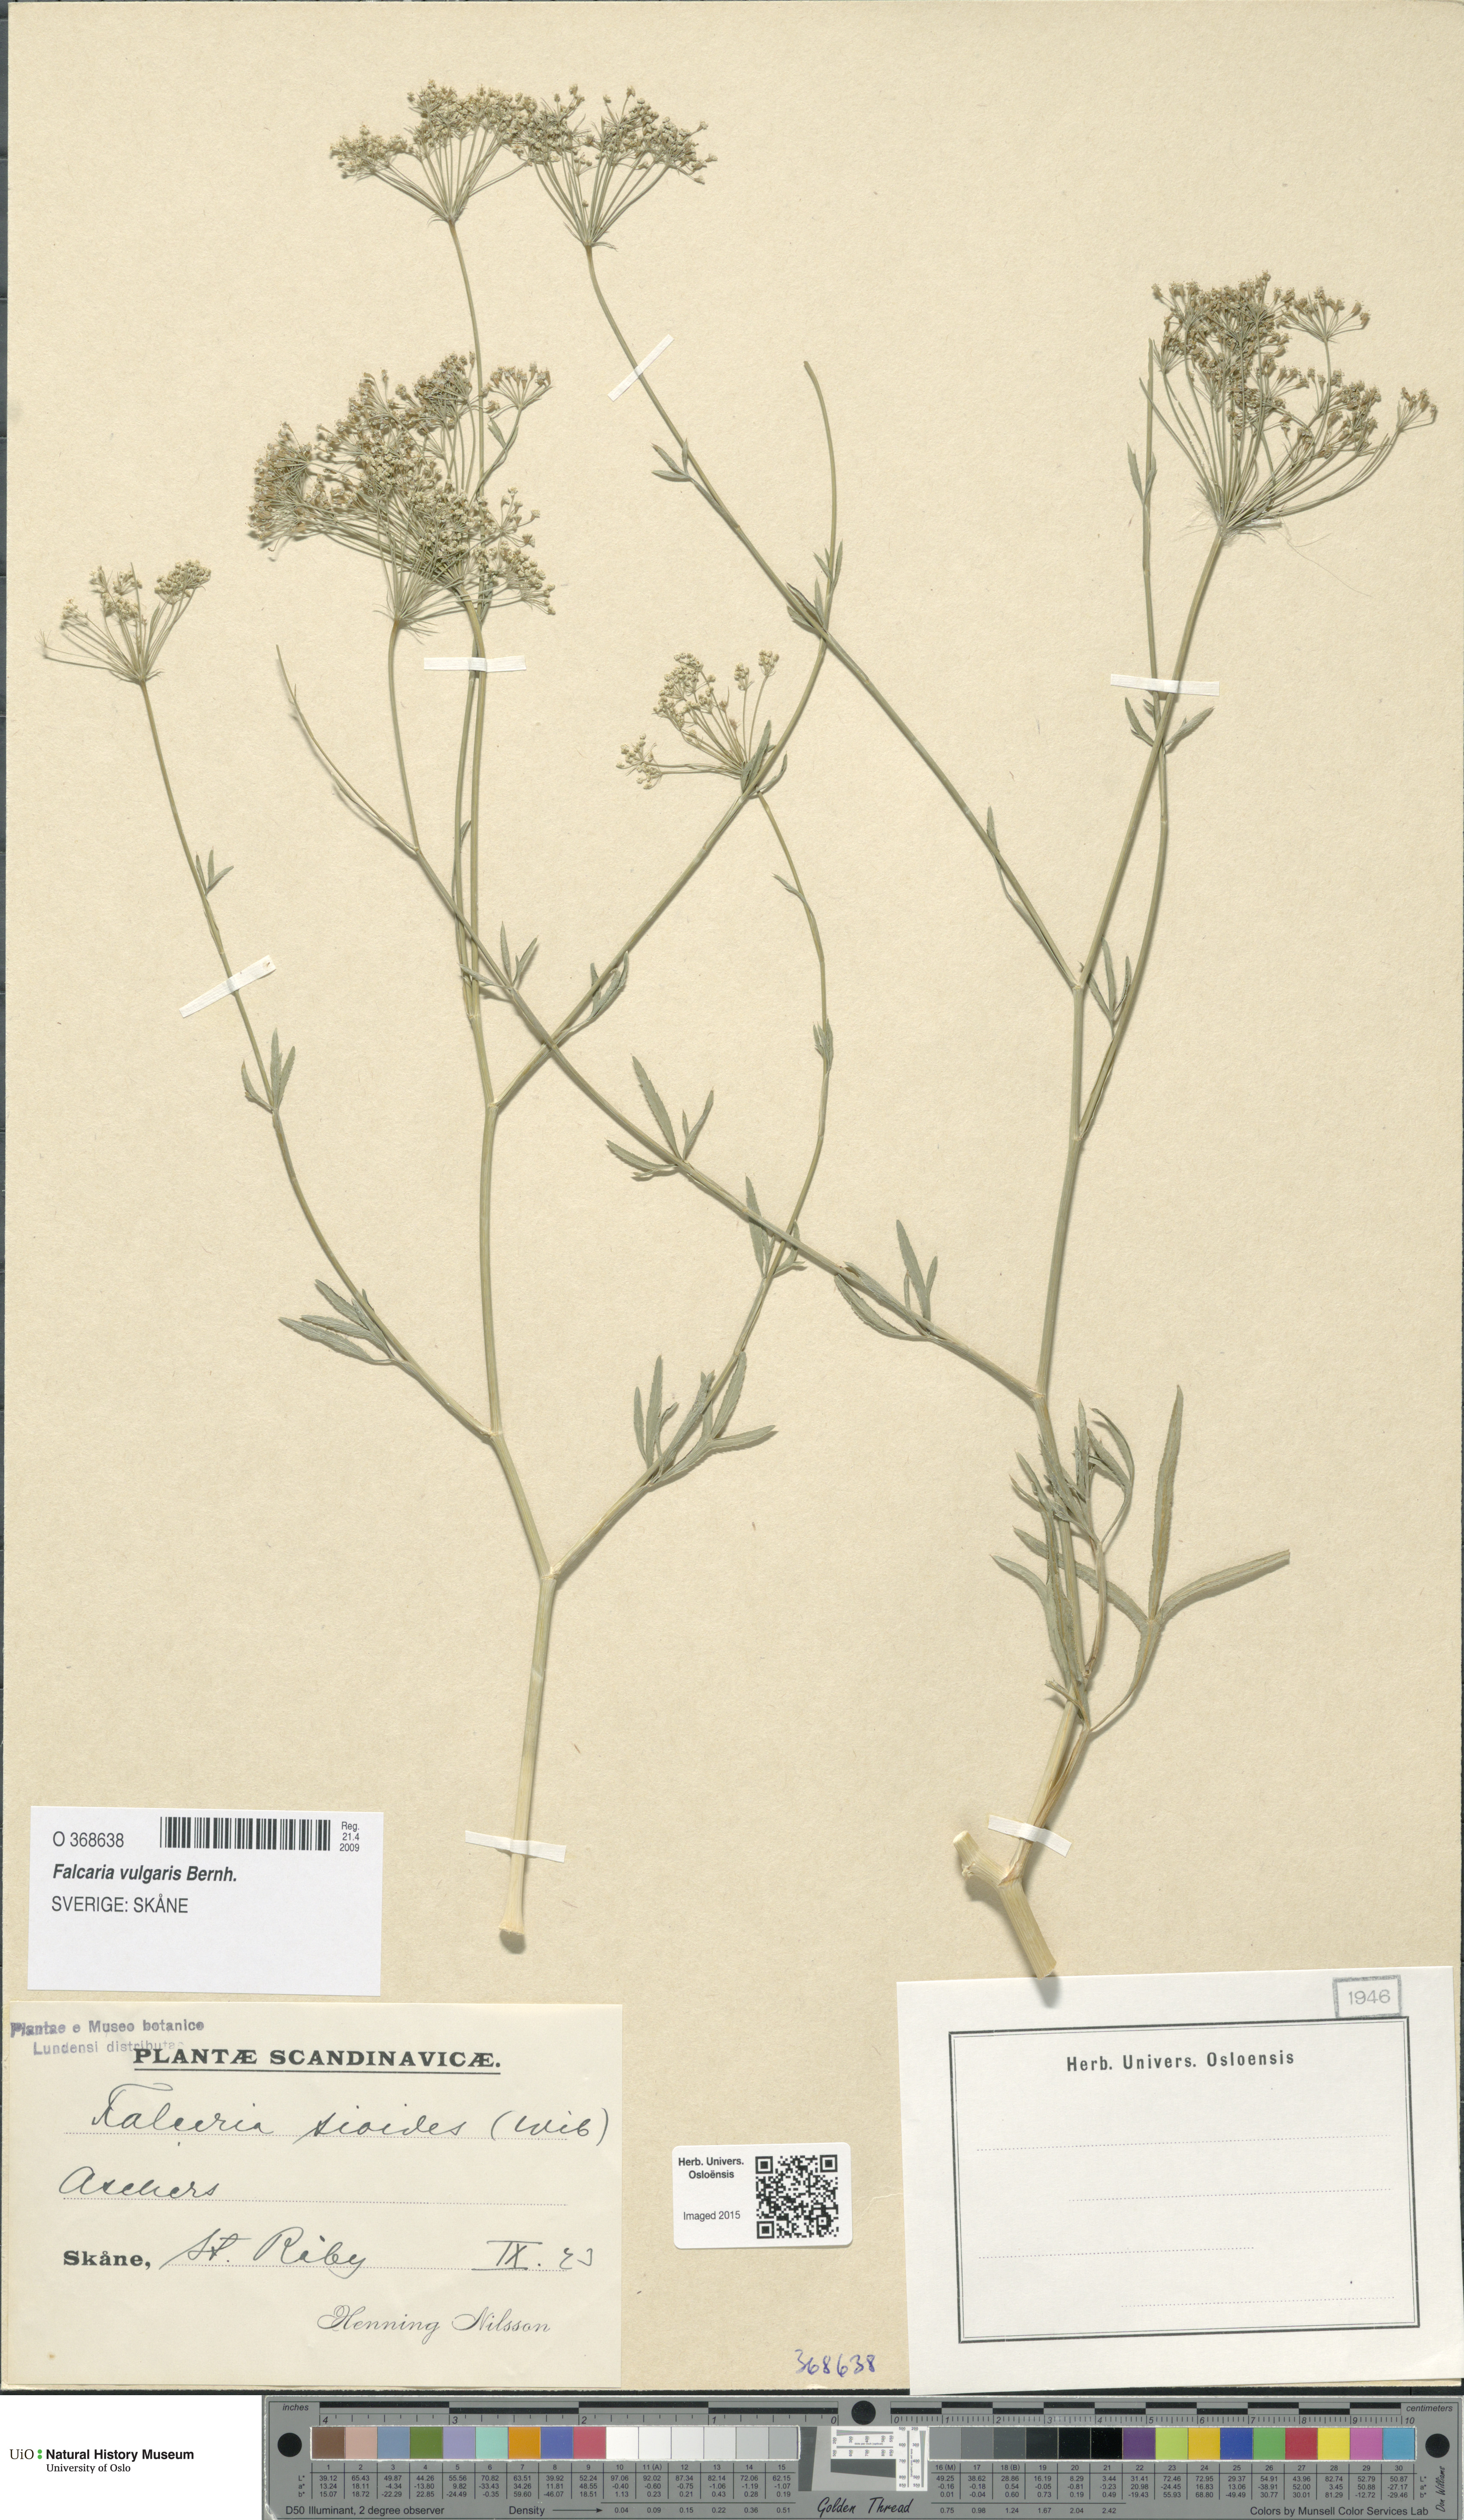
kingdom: Plantae
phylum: Tracheophyta
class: Magnoliopsida
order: Apiales
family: Apiaceae
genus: Falcaria
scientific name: Falcaria vulgaris
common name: Longleaf
